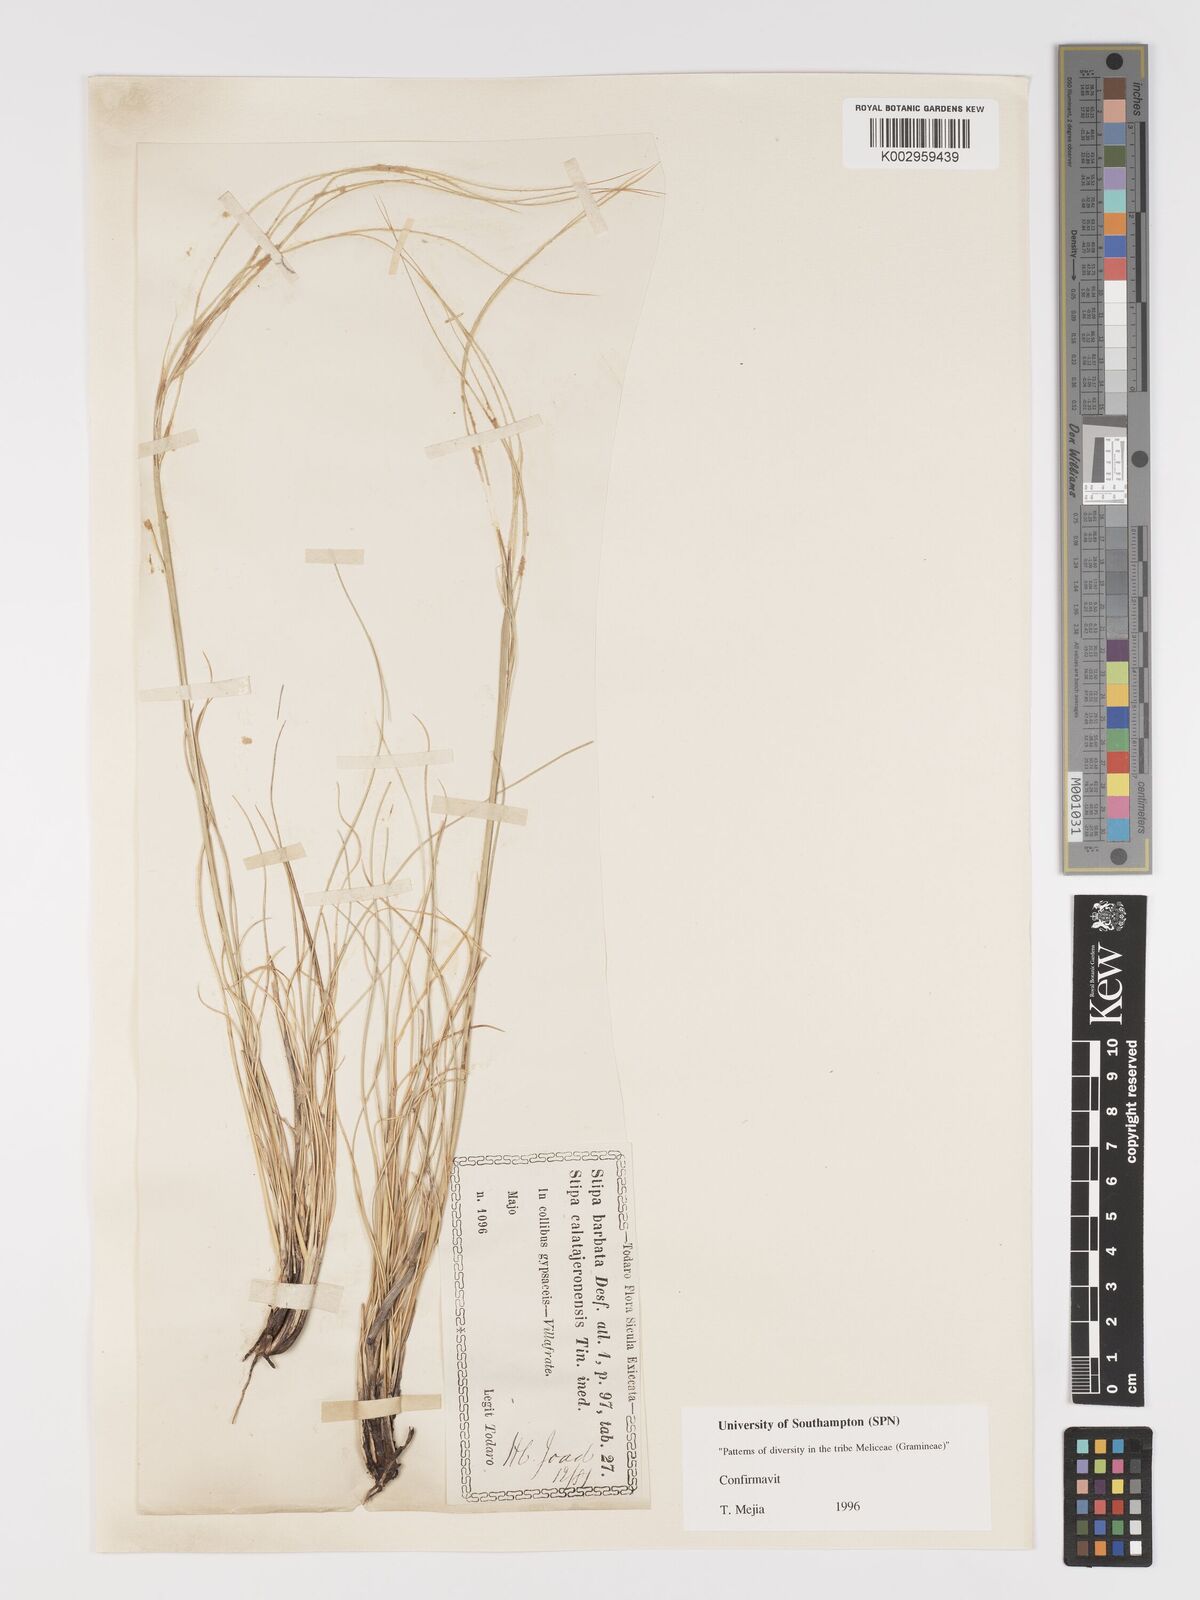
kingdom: Plantae
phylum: Tracheophyta
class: Liliopsida
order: Poales
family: Poaceae
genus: Stipa
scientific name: Stipa barbata
